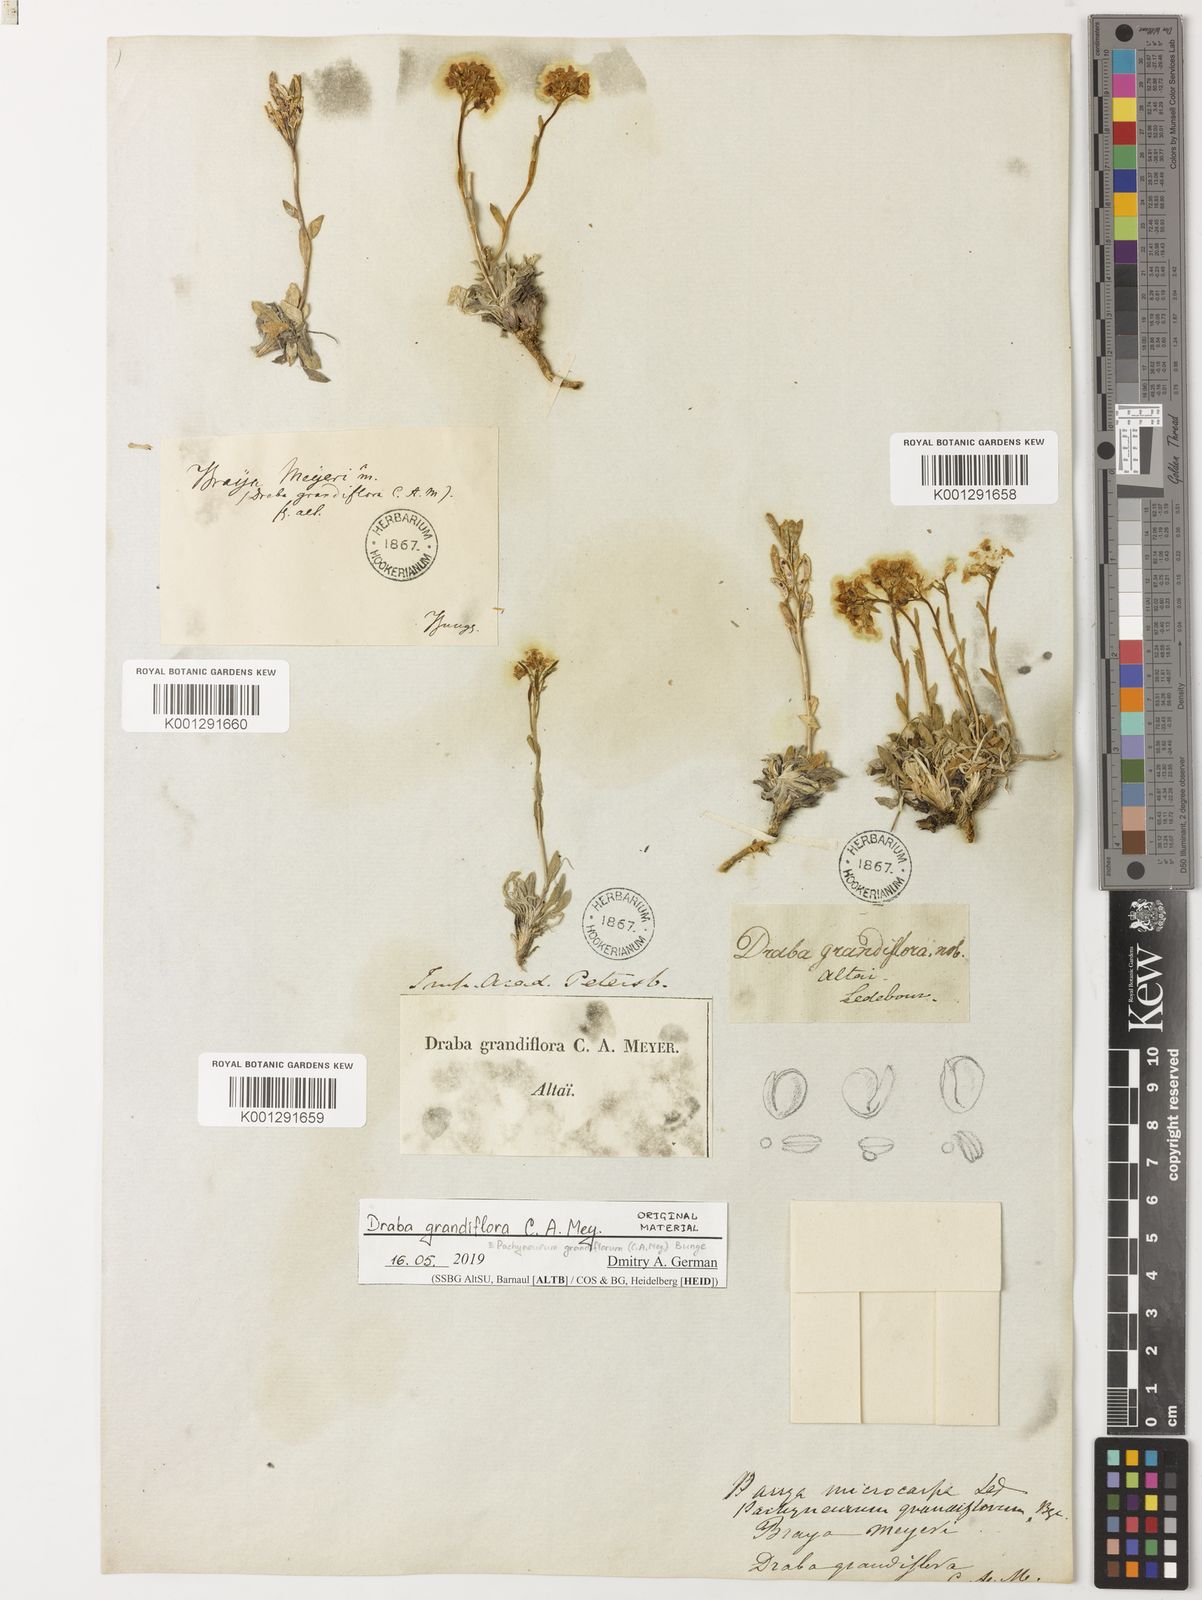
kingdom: Plantae
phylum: Tracheophyta
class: Magnoliopsida
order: Brassicales
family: Brassicaceae
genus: Pachyneurum
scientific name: Pachyneurum grandiflorum
